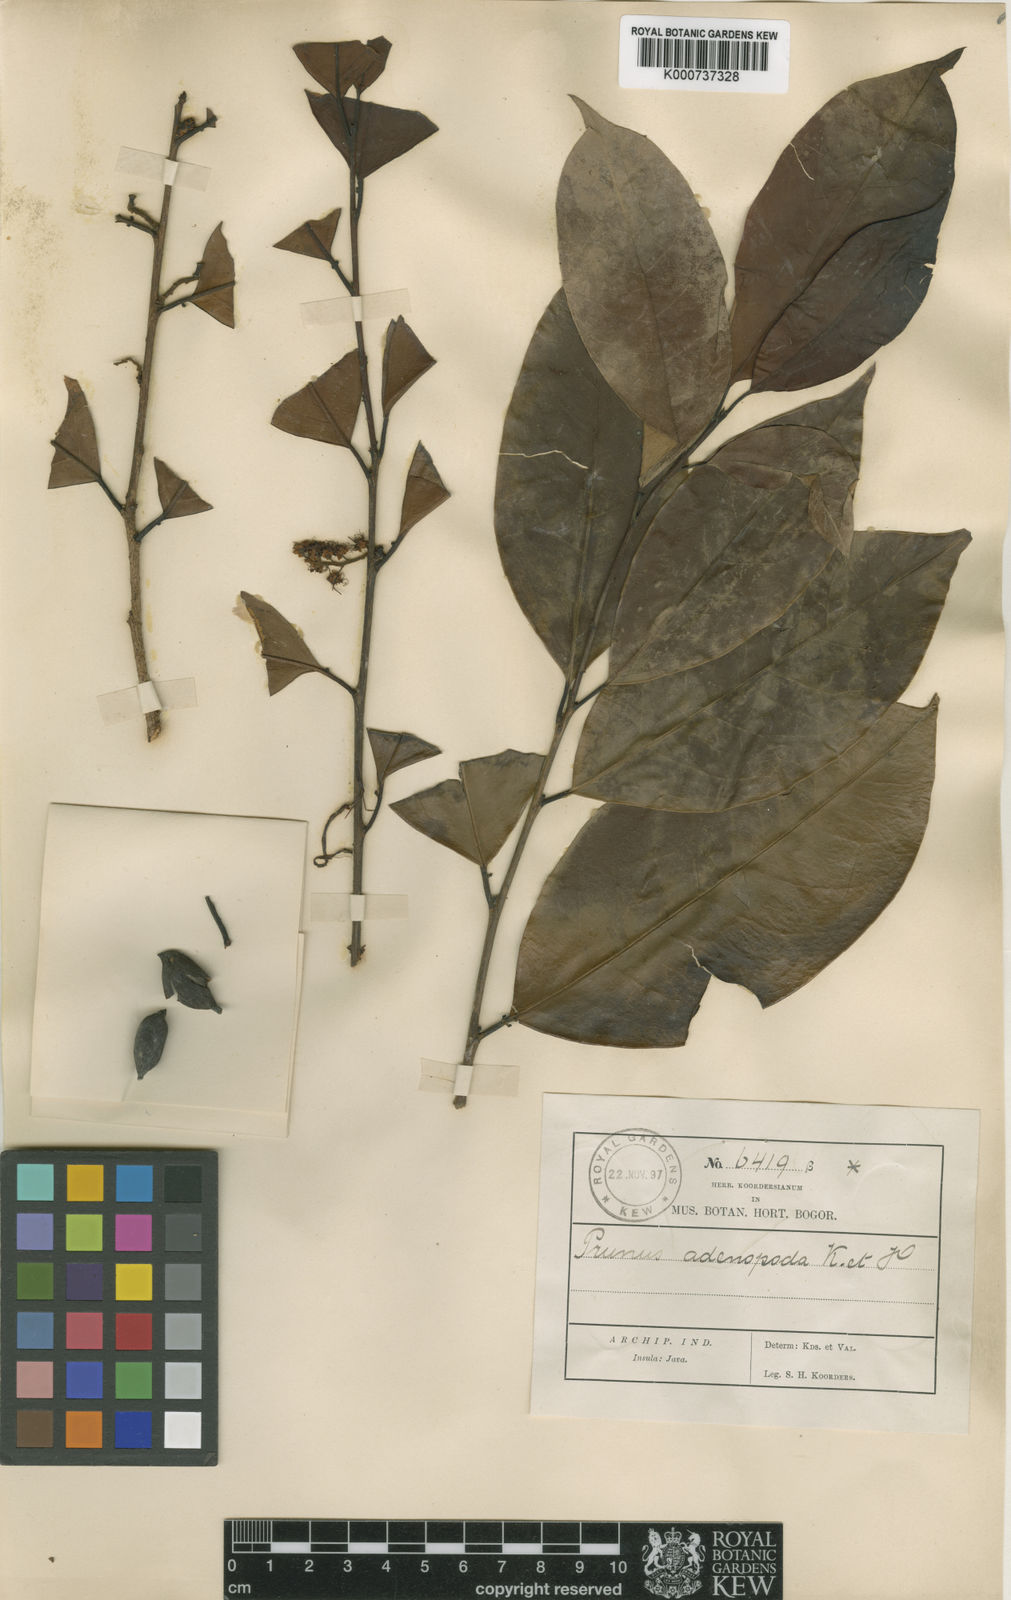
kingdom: Plantae
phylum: Tracheophyta
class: Magnoliopsida
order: Rosales
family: Rosaceae
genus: Prunus
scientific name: Prunus zippeliana
